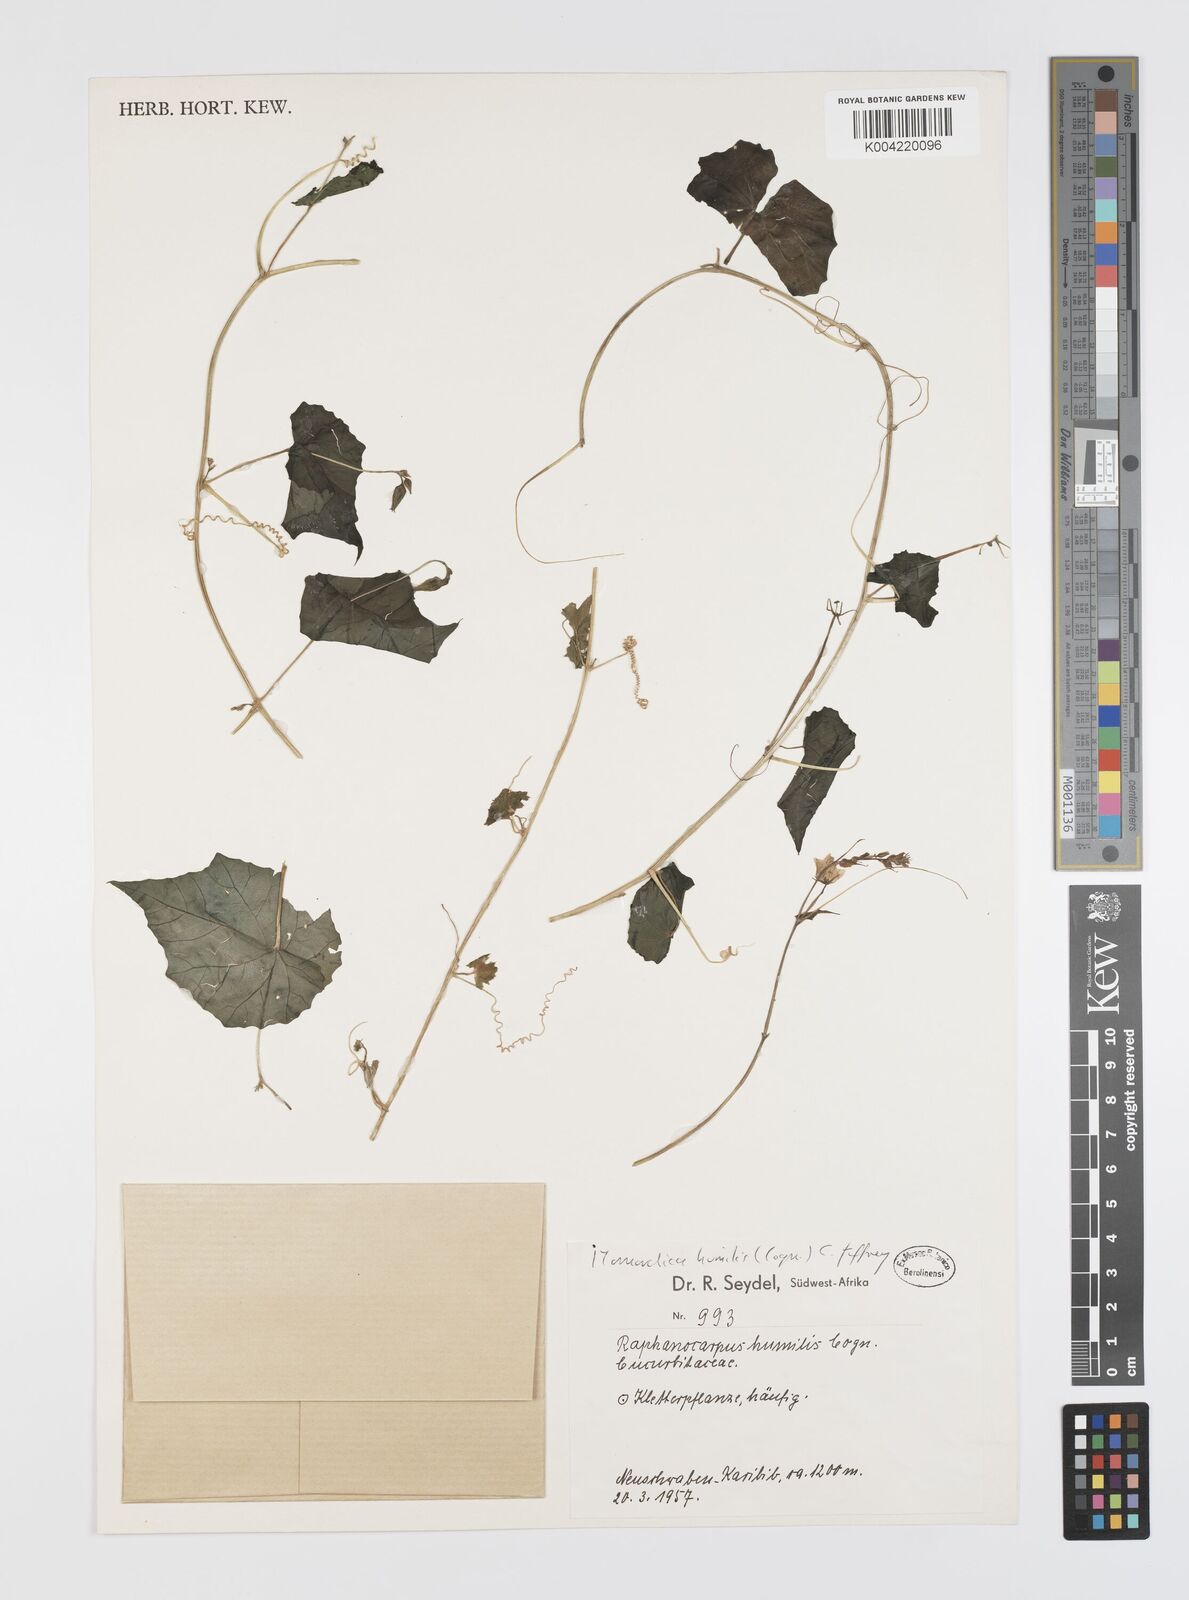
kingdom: Plantae
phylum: Tracheophyta
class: Magnoliopsida
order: Cucurbitales
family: Cucurbitaceae
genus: Momordica
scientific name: Momordica
